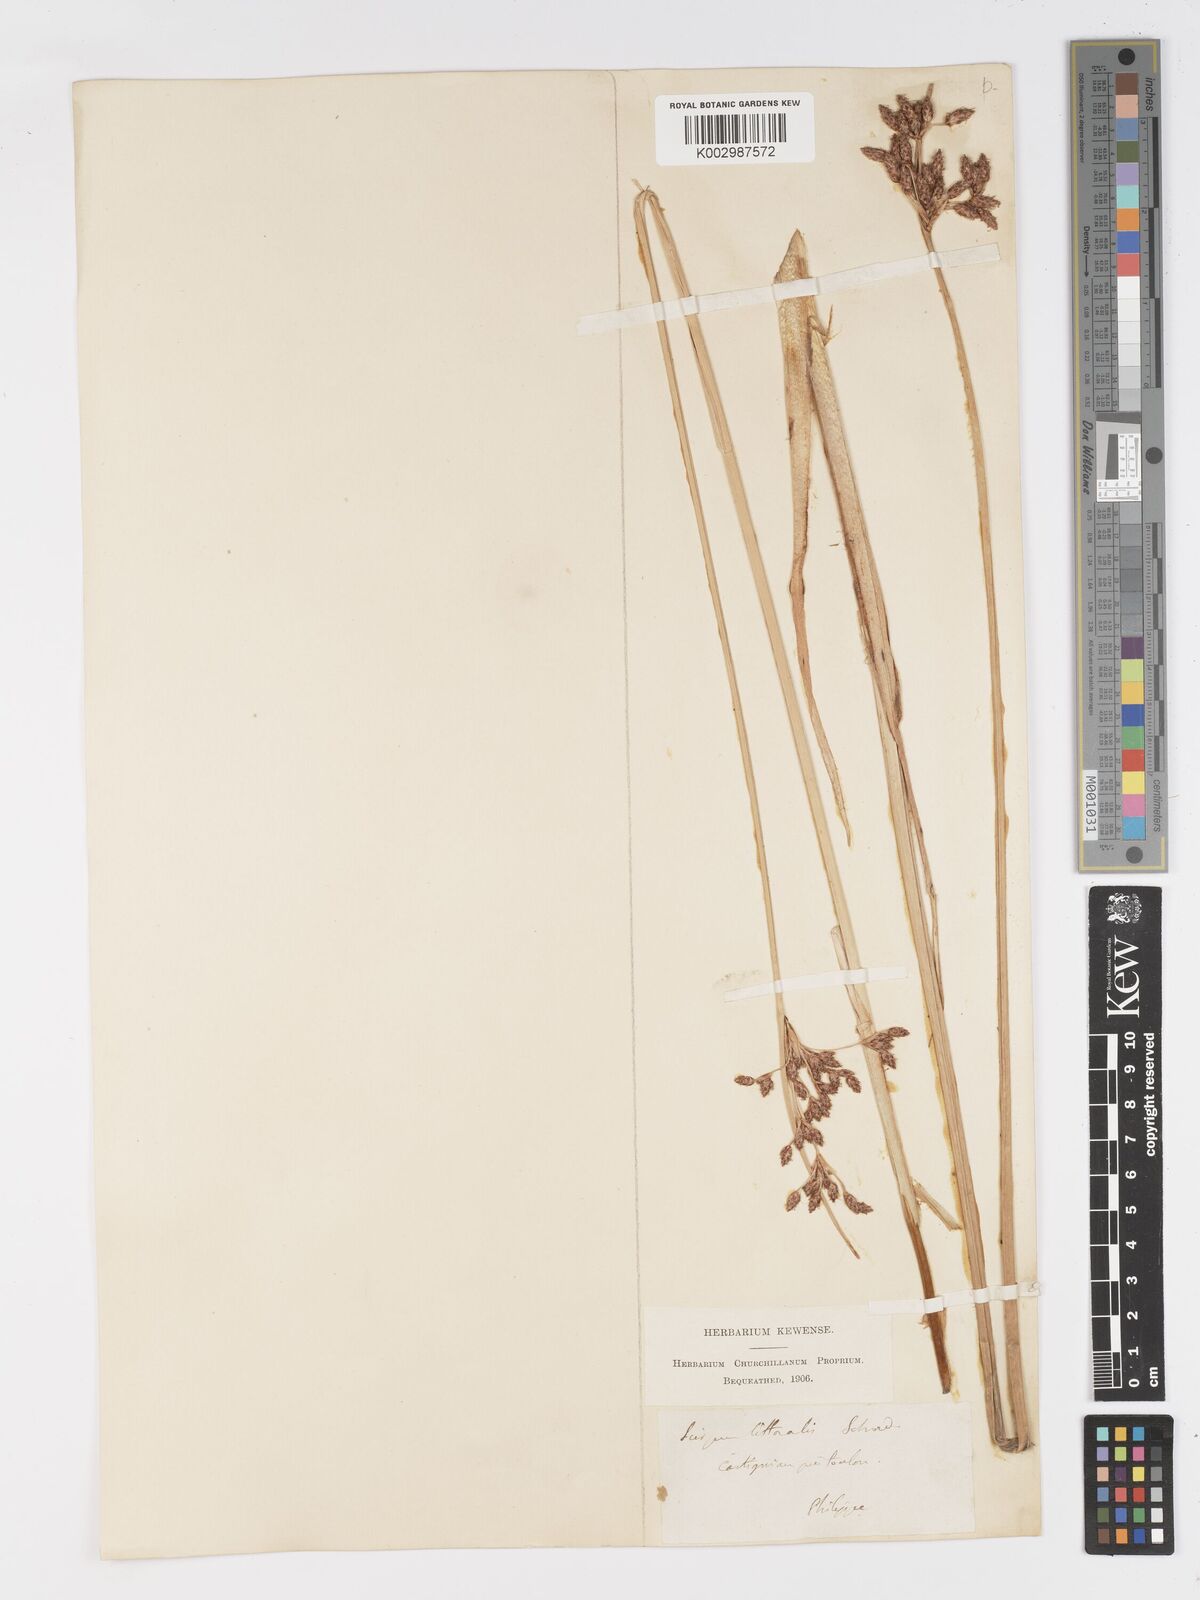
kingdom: Plantae
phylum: Tracheophyta
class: Liliopsida
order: Poales
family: Cyperaceae
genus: Schoenoplectus
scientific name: Schoenoplectus litoralis
